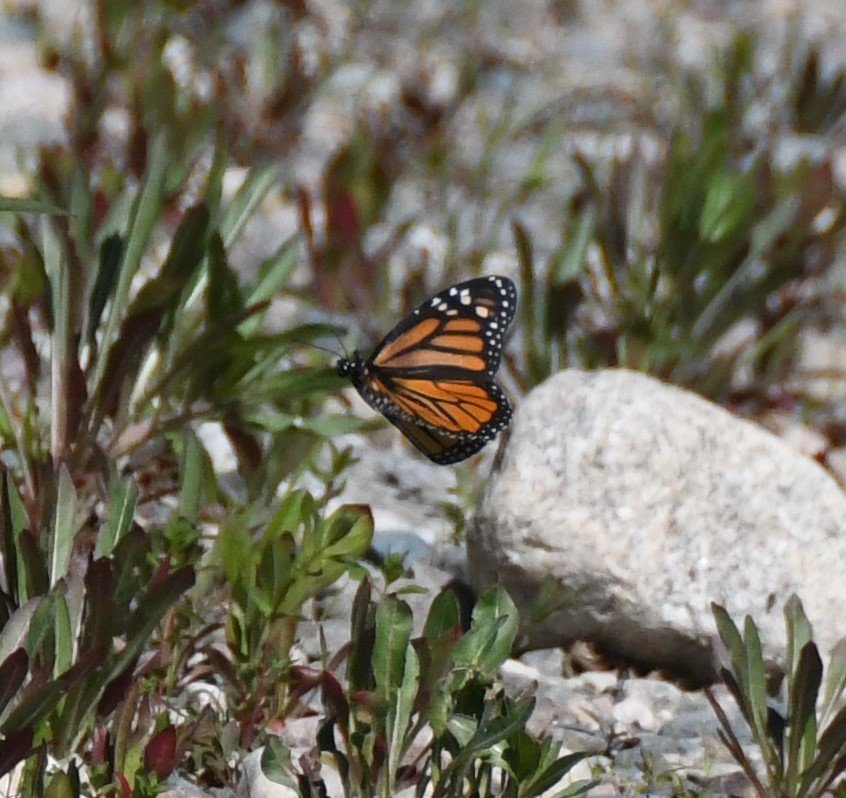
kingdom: Animalia
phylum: Arthropoda
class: Insecta
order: Lepidoptera
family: Nymphalidae
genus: Danaus
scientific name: Danaus plexippus
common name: Monarch
